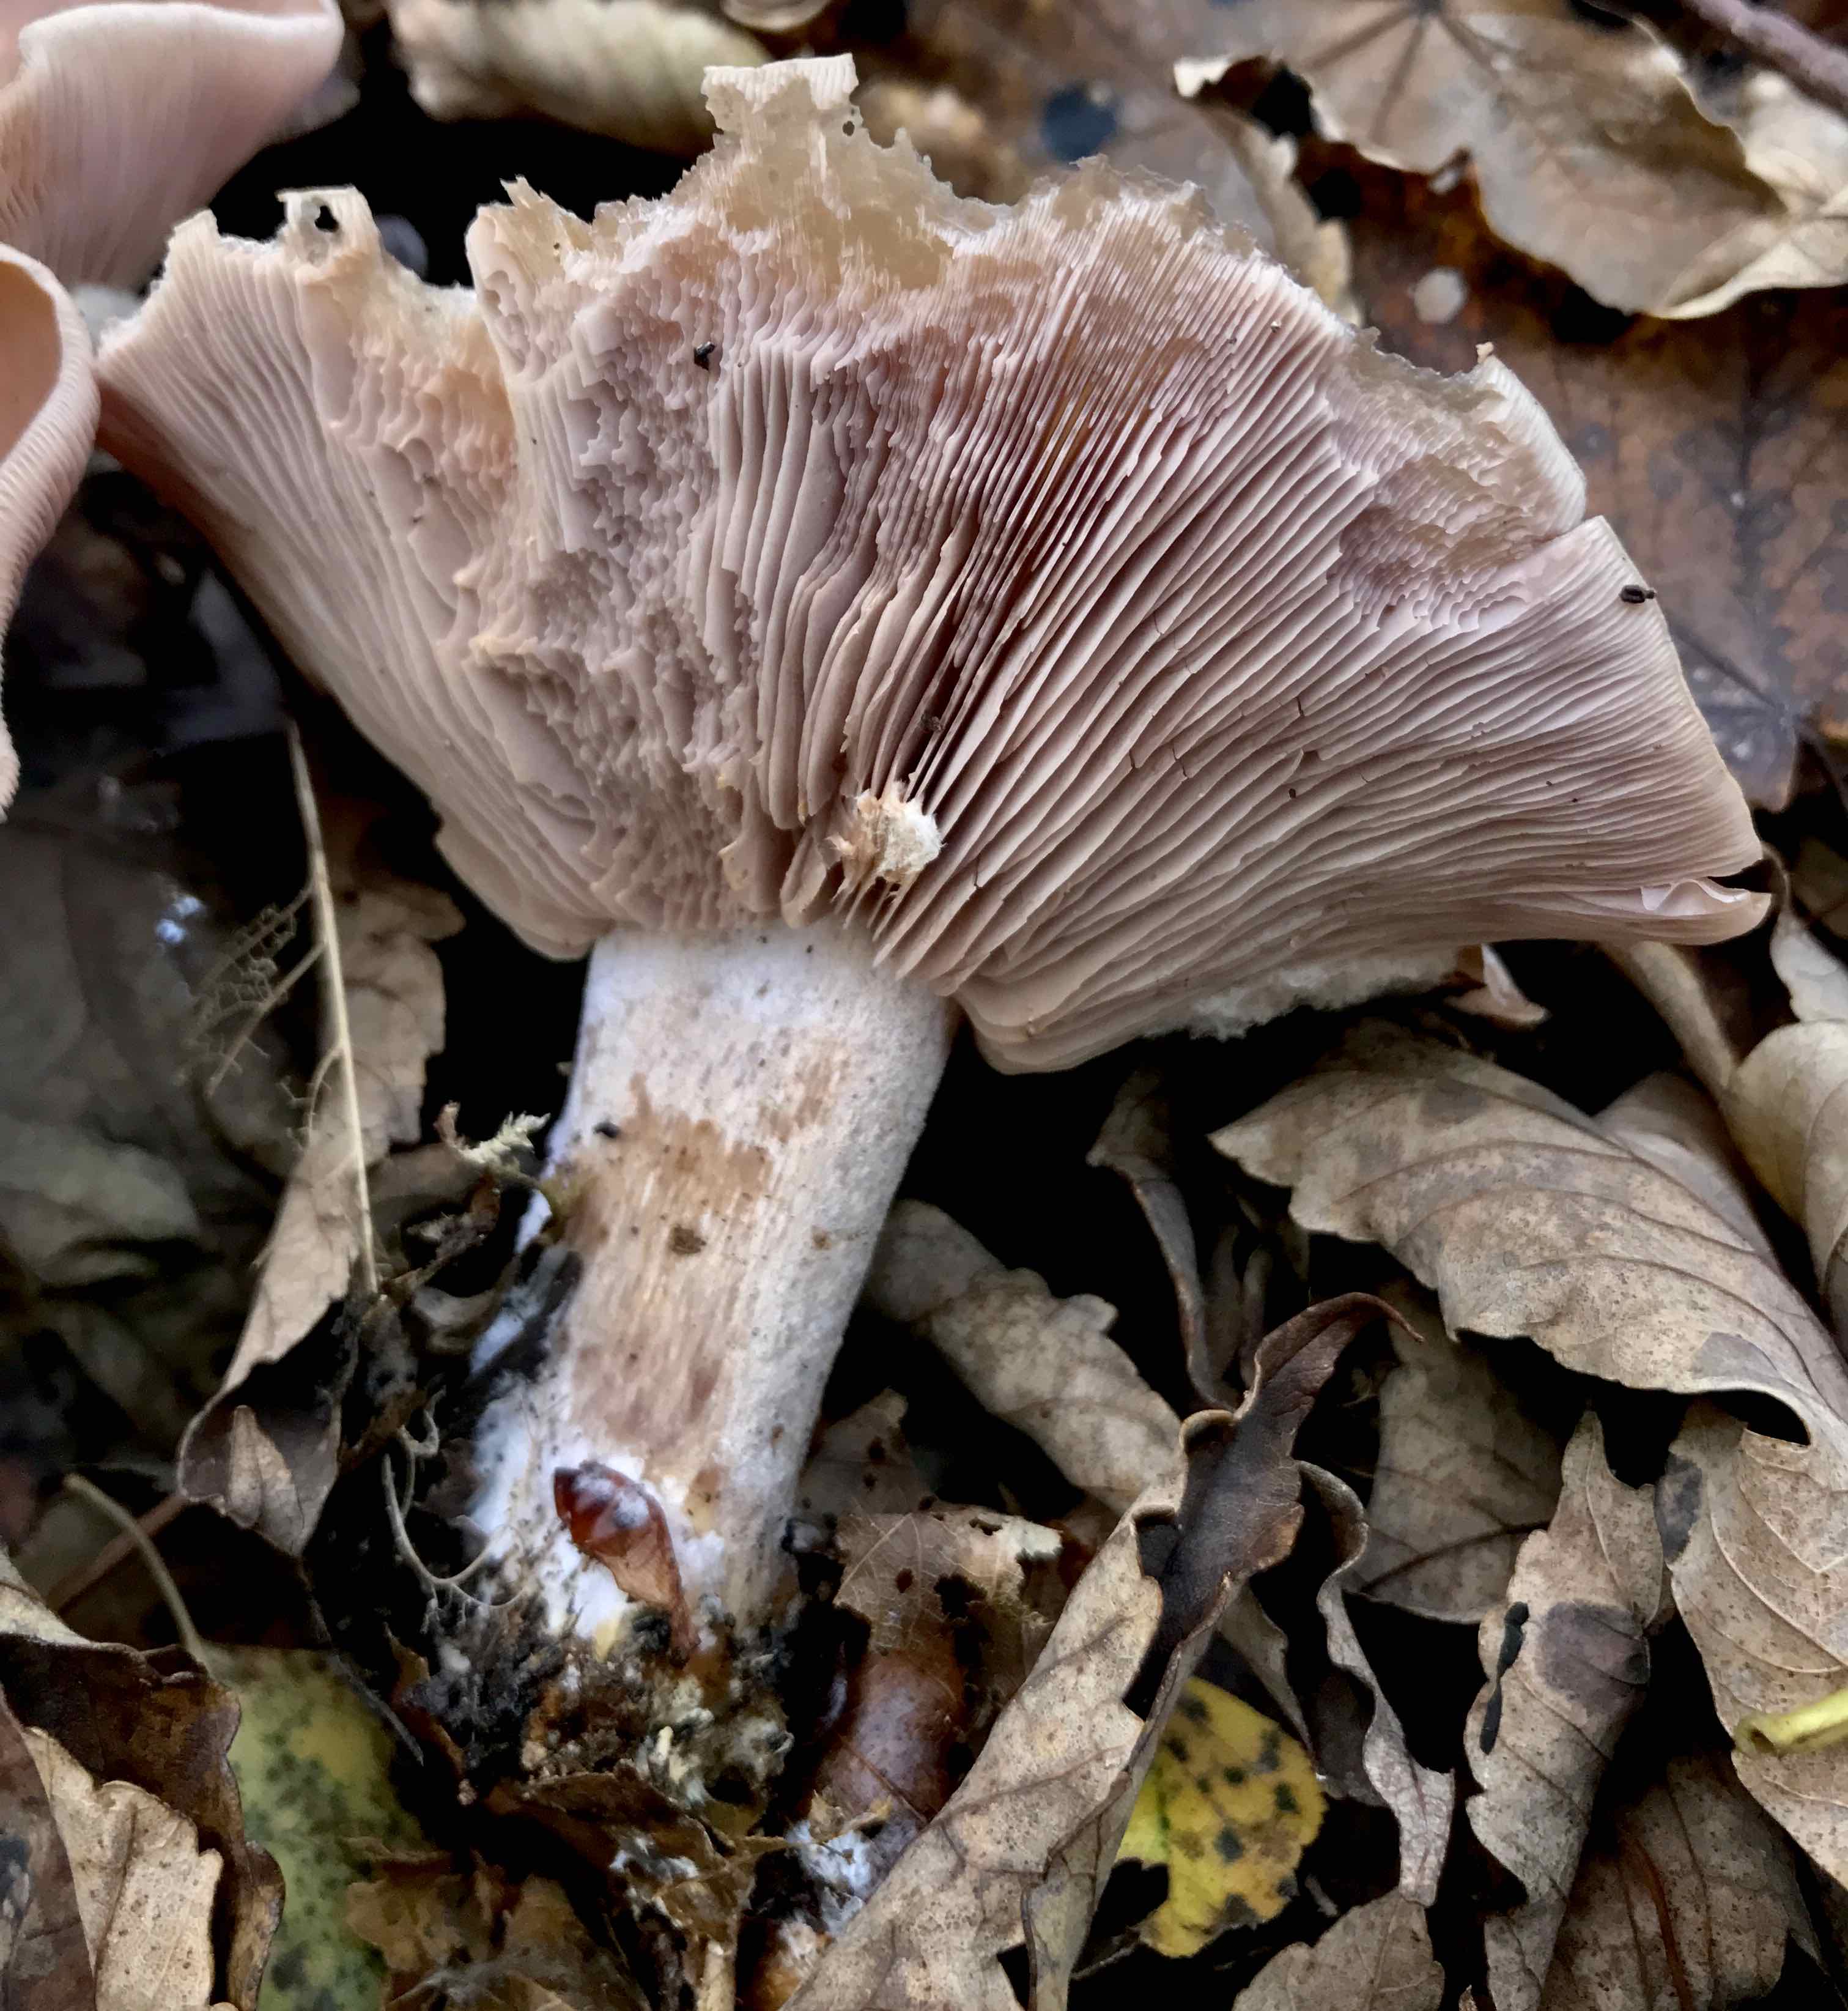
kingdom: Fungi
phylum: Basidiomycota
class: Agaricomycetes
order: Agaricales
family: Tricholomataceae
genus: Lepista
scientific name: Lepista nuda
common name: violet hekseringshat
